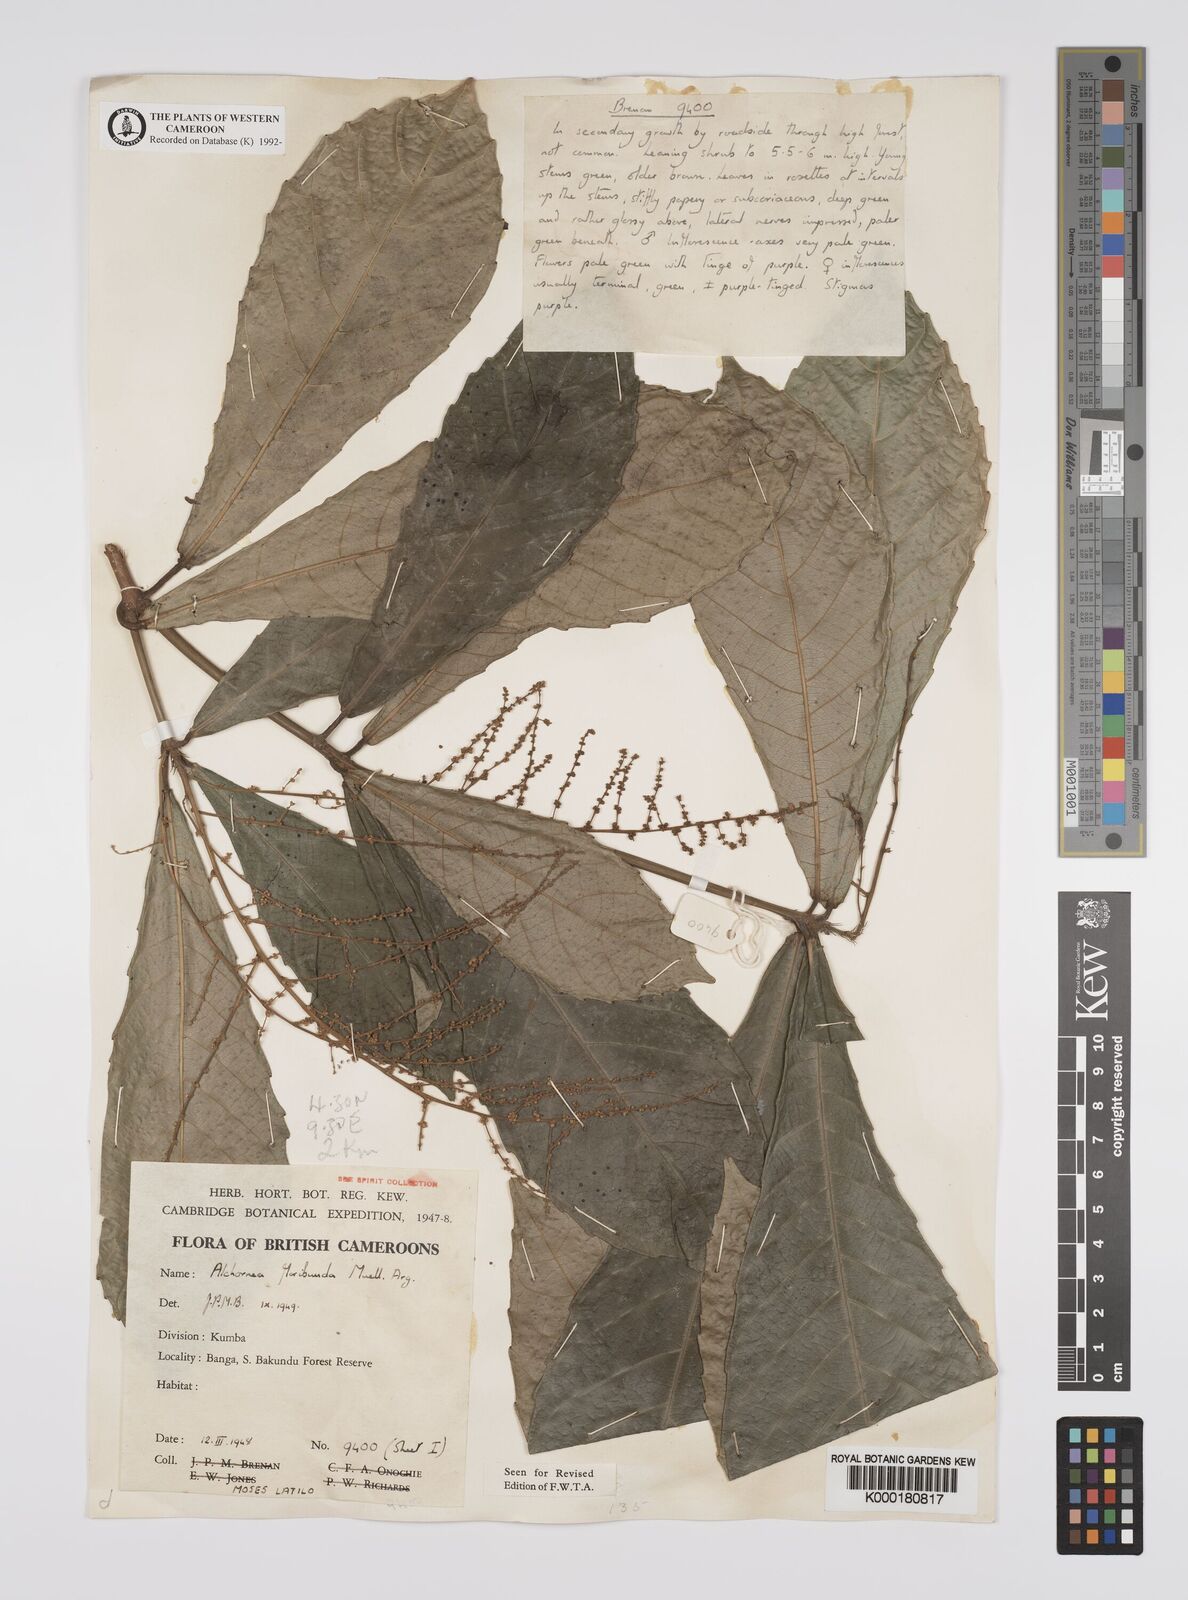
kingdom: Plantae
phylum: Tracheophyta
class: Magnoliopsida
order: Malpighiales
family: Euphorbiaceae
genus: Alchornea
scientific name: Alchornea
